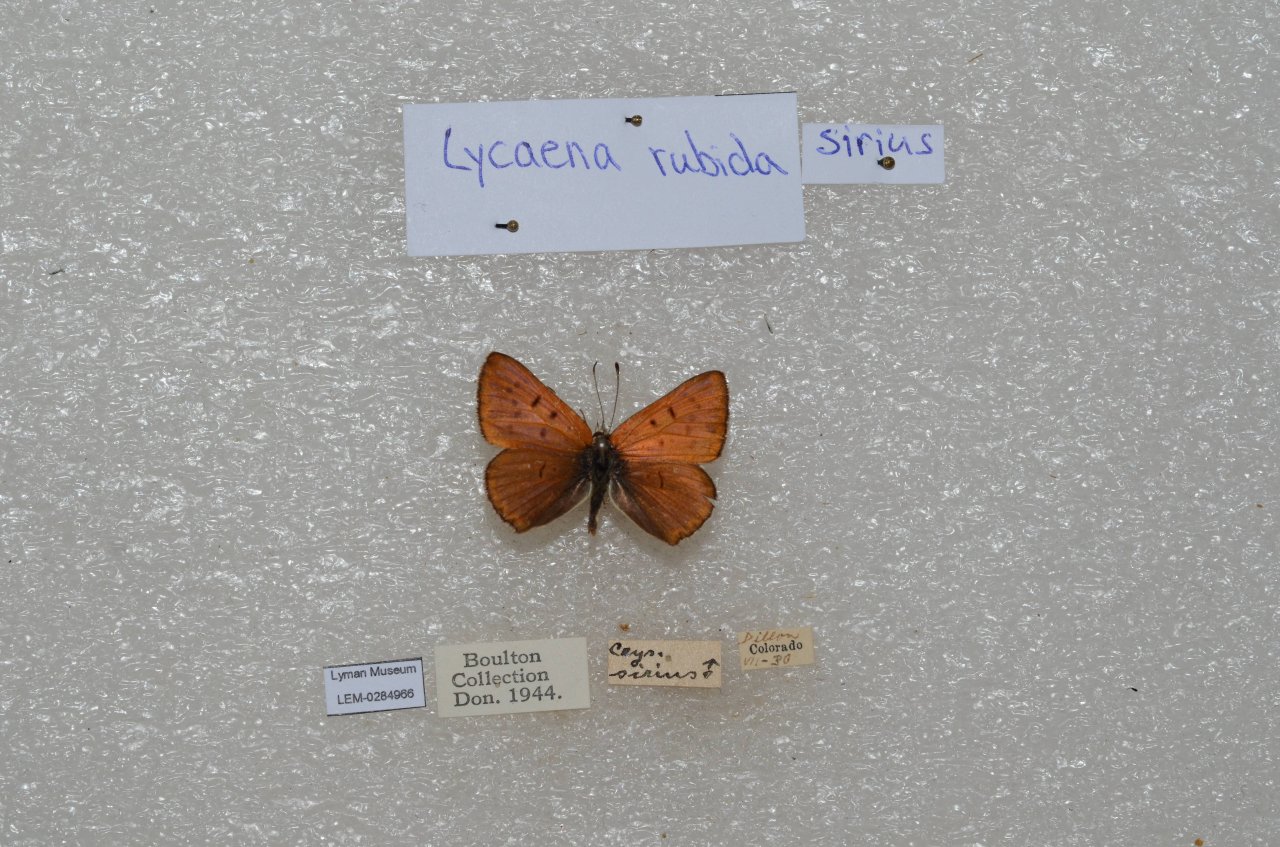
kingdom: Animalia
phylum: Arthropoda
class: Insecta
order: Lepidoptera
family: Sesiidae
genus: Sesia
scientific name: Sesia Lycaena rubidus
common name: Ruddy Copper
